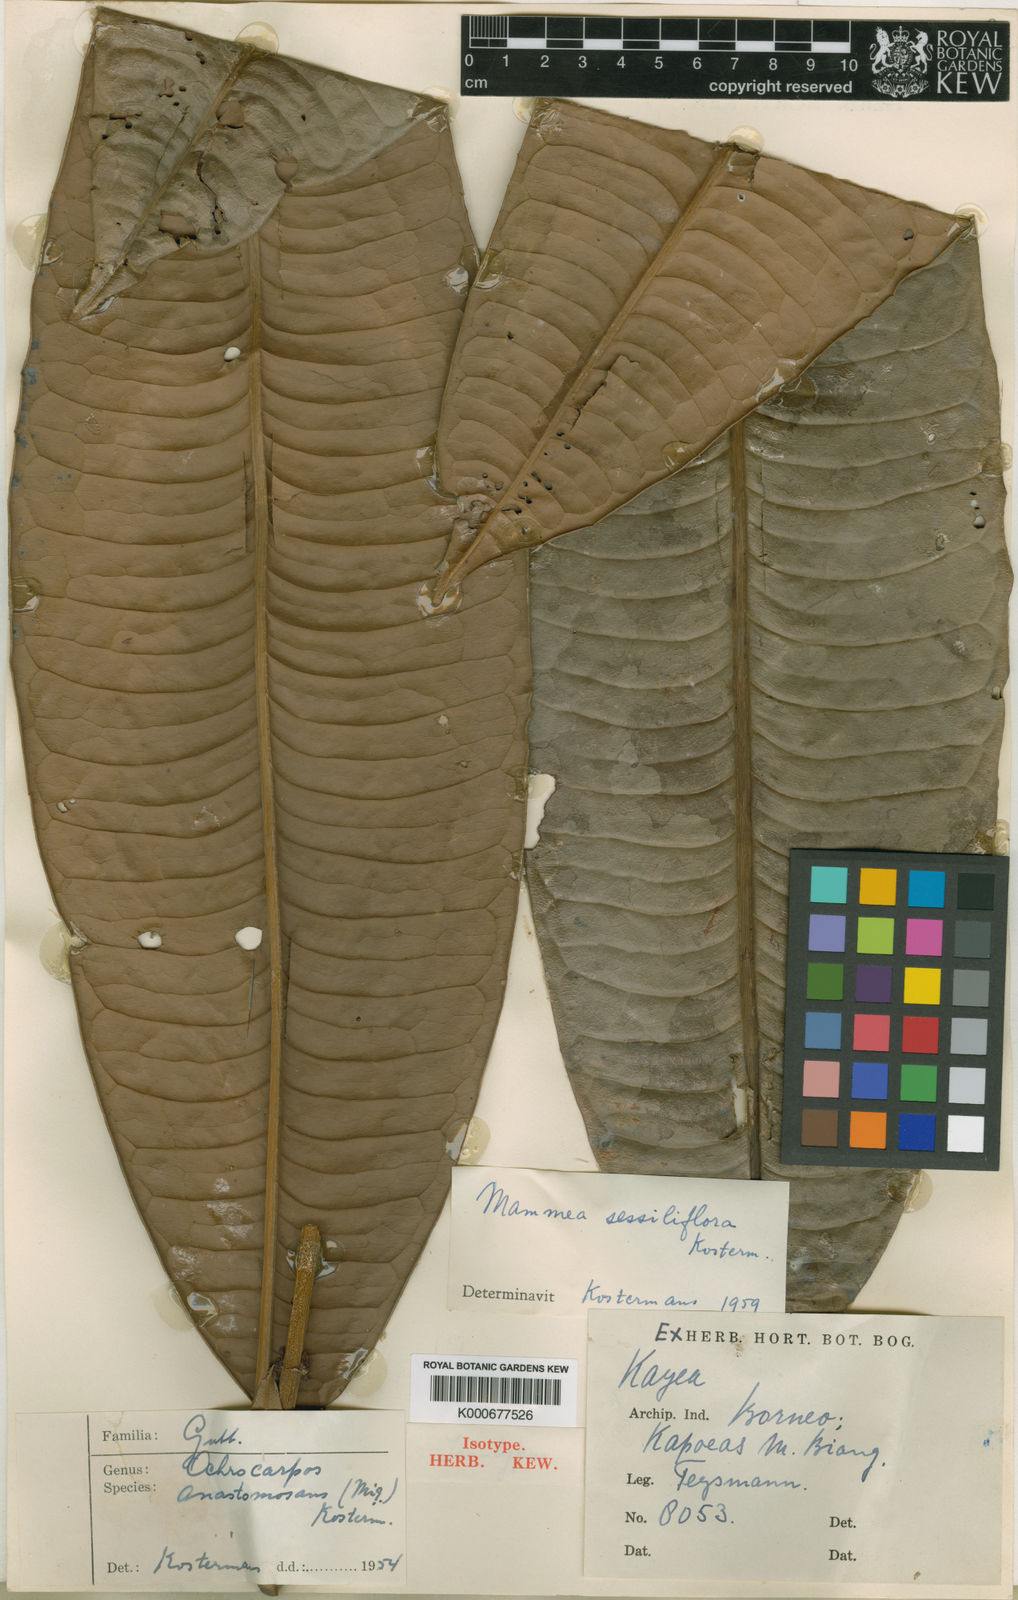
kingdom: Plantae
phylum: Tracheophyta
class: Magnoliopsida
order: Malpighiales
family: Calophyllaceae
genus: Mammea
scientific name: Mammea anastomosans
